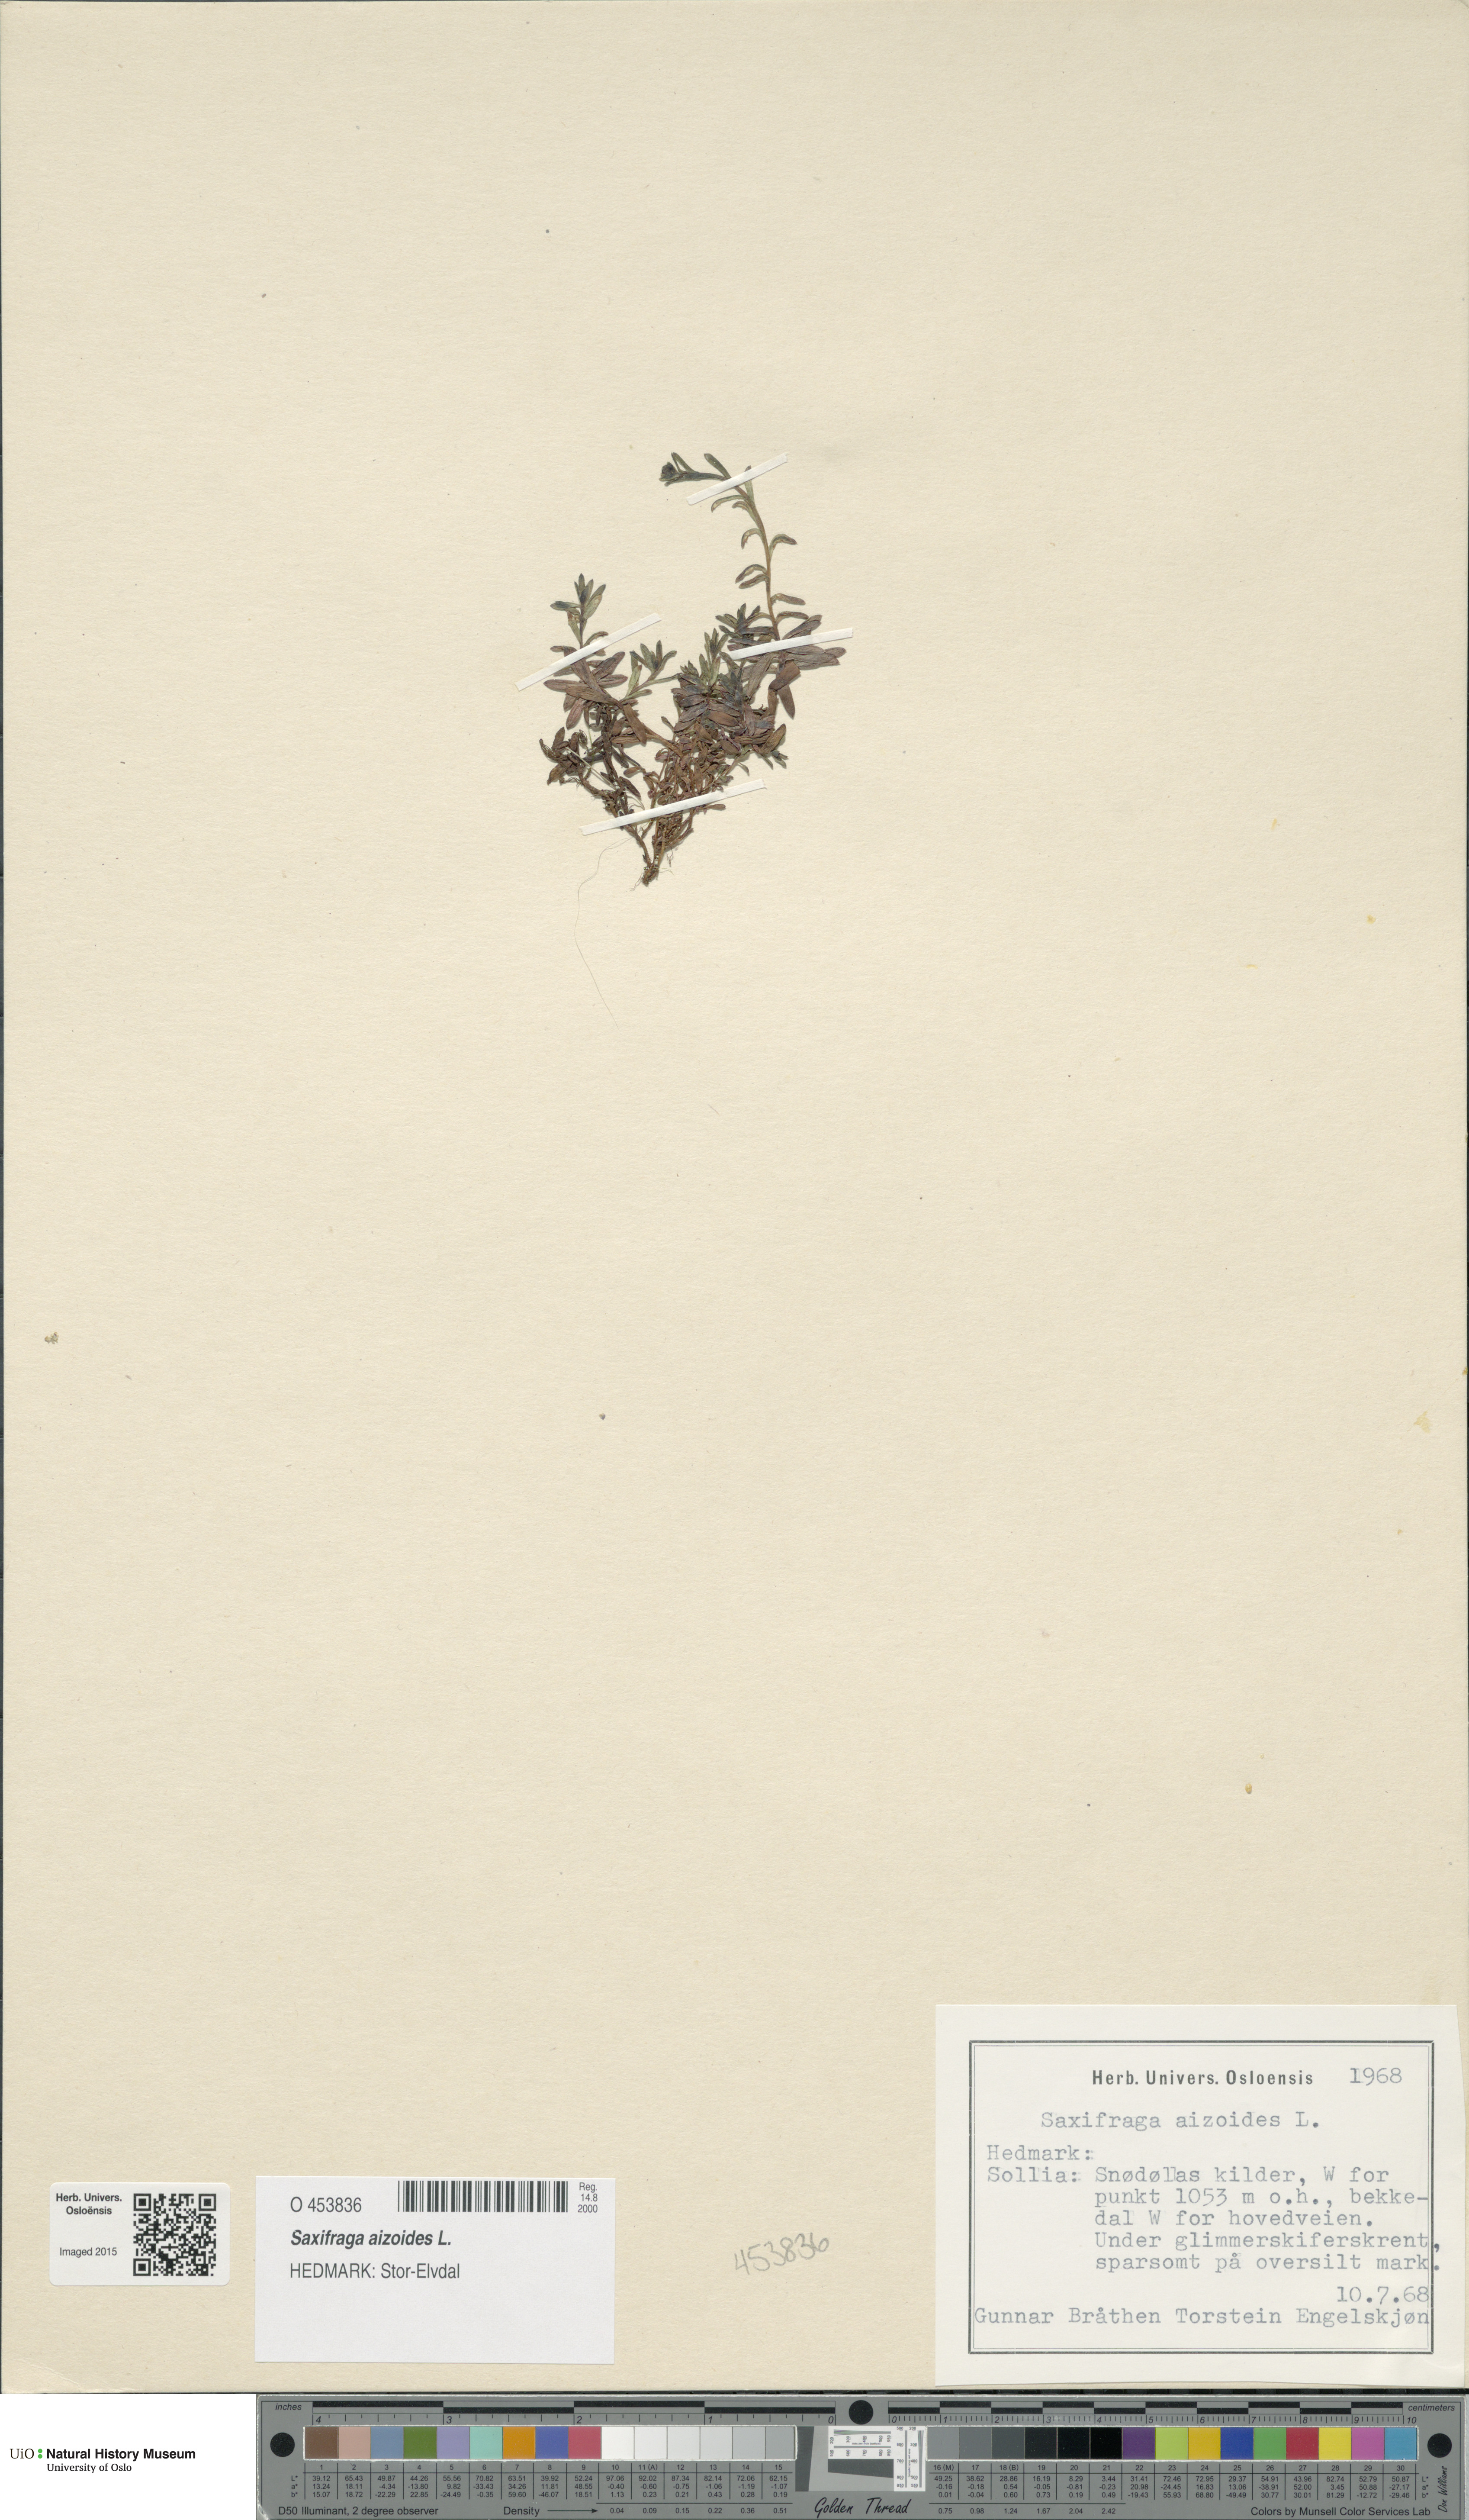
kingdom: Plantae
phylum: Tracheophyta
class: Magnoliopsida
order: Saxifragales
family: Saxifragaceae
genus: Saxifraga
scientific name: Saxifraga aizoides
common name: Yellow mountain saxifrage
